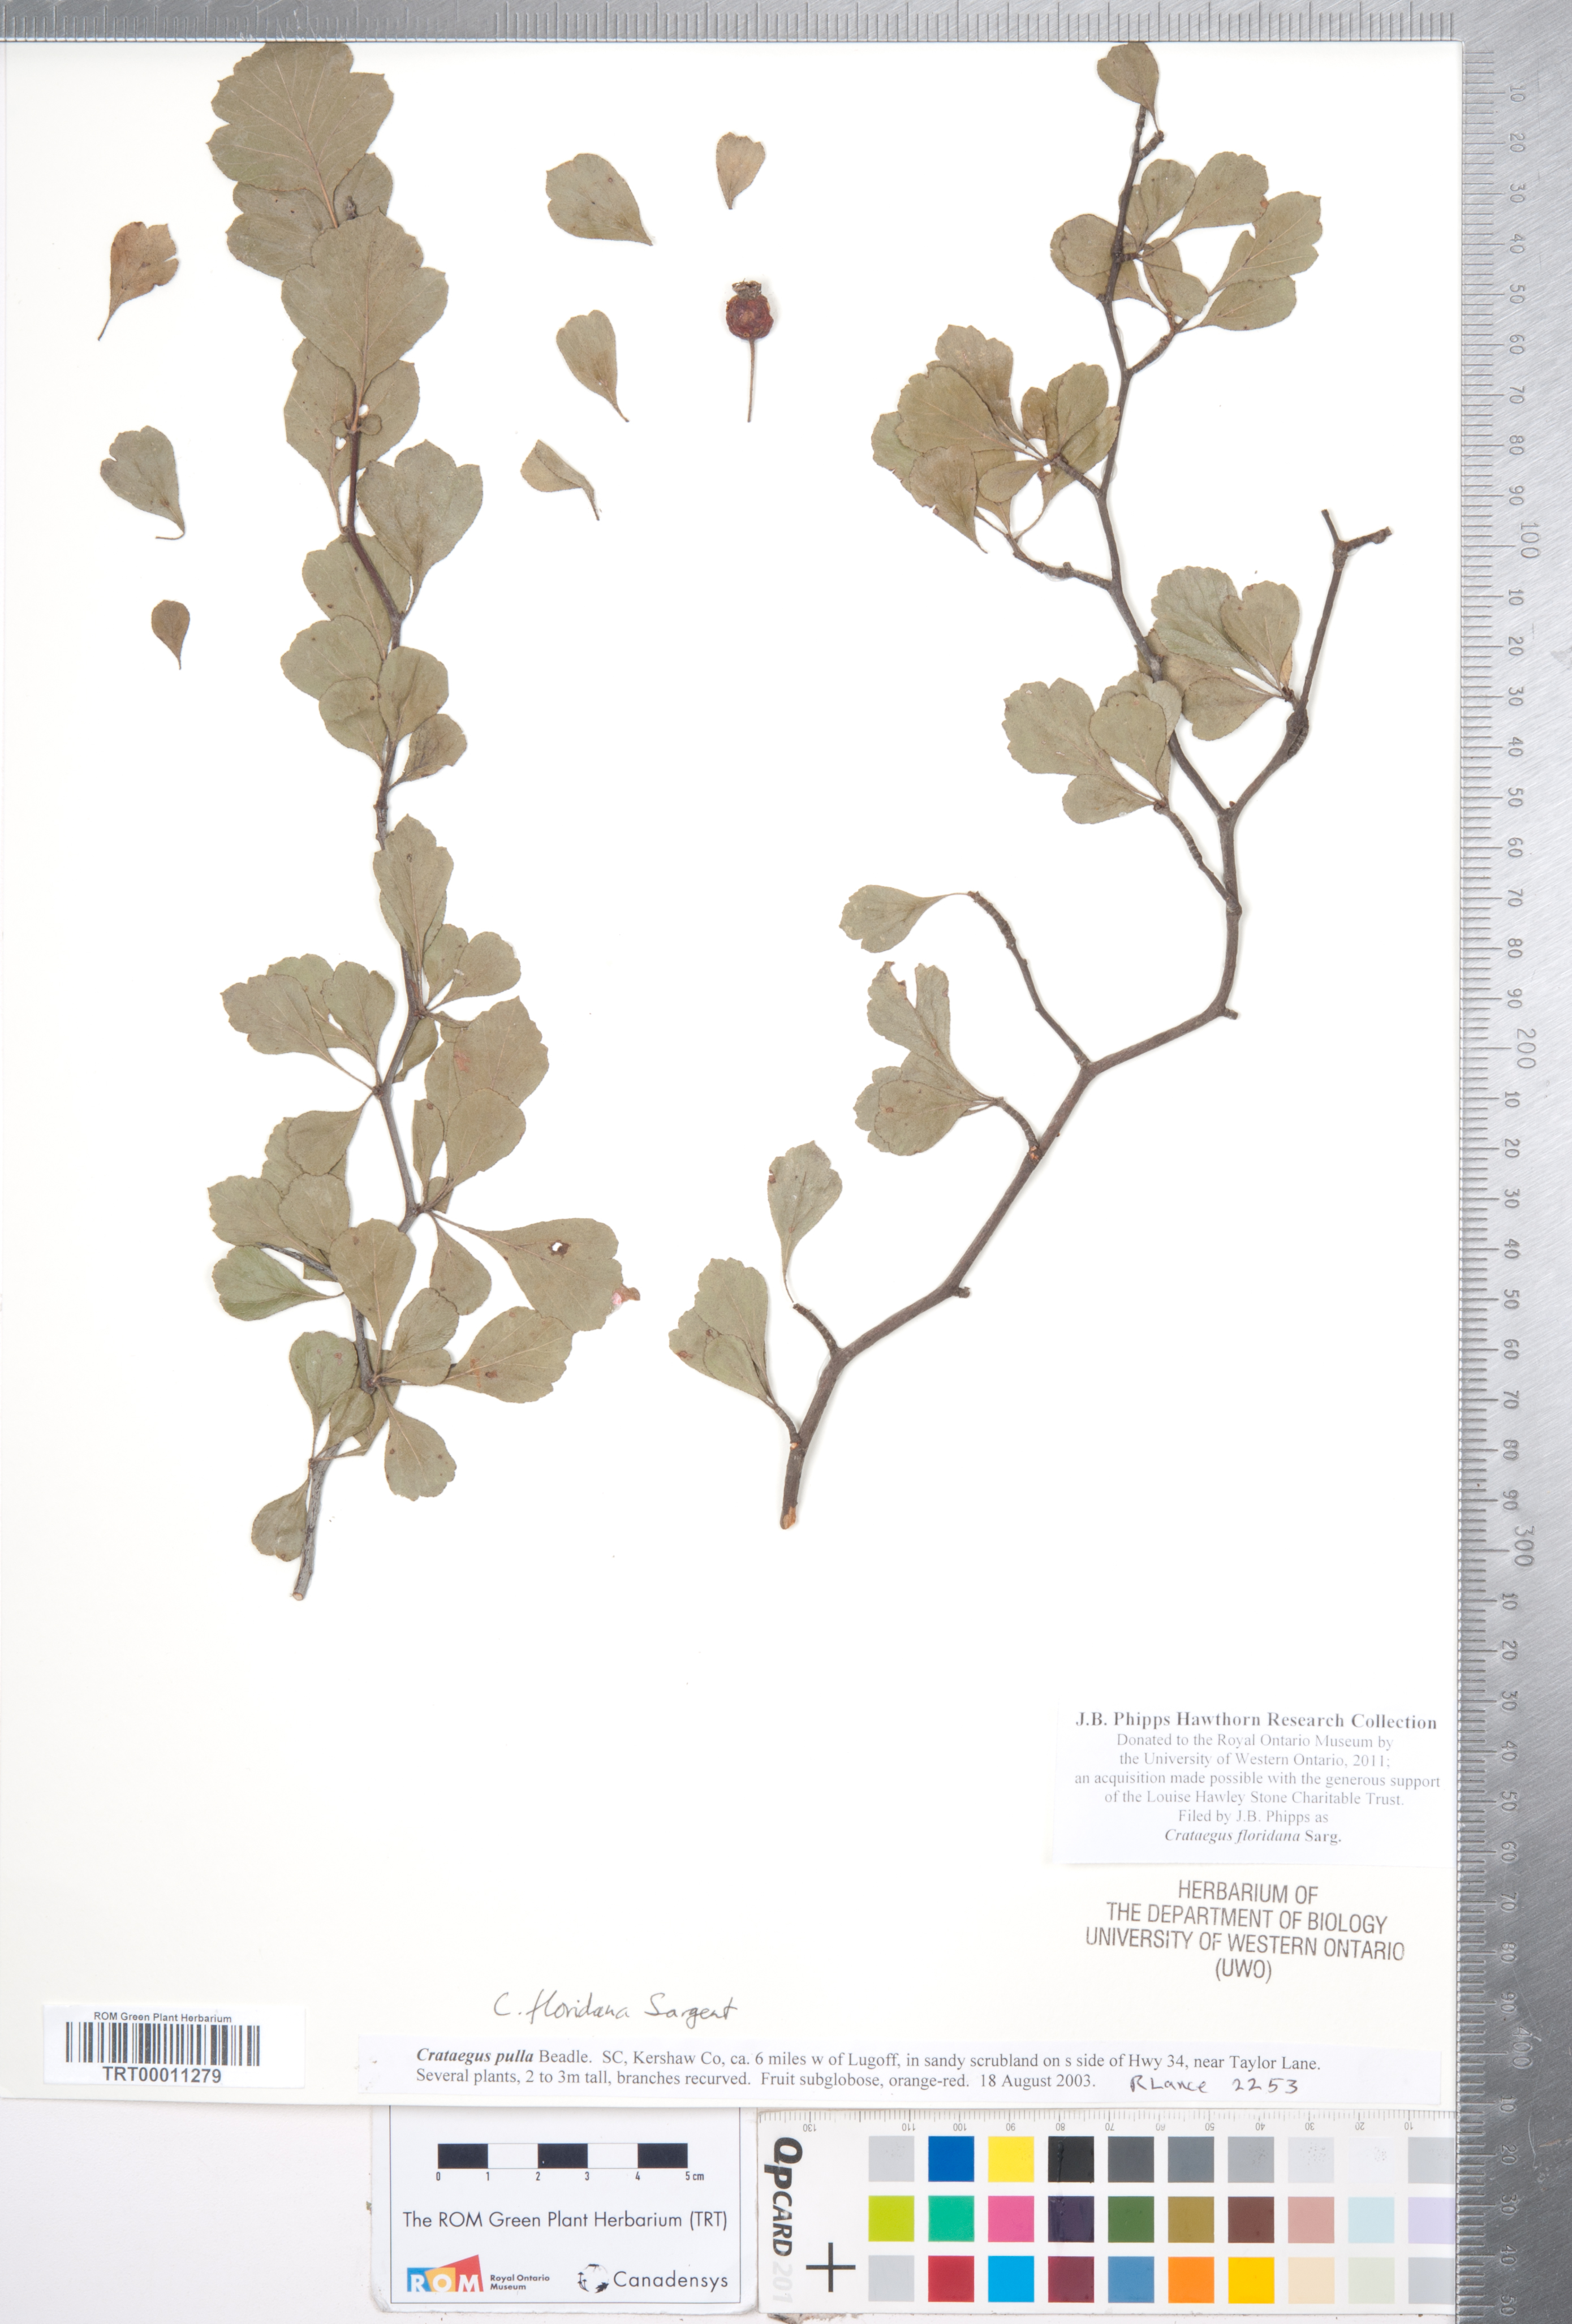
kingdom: Plantae
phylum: Tracheophyta
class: Magnoliopsida
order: Rosales
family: Rosaceae
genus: Crataegus
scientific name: Crataegus floridana
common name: Florida haw
